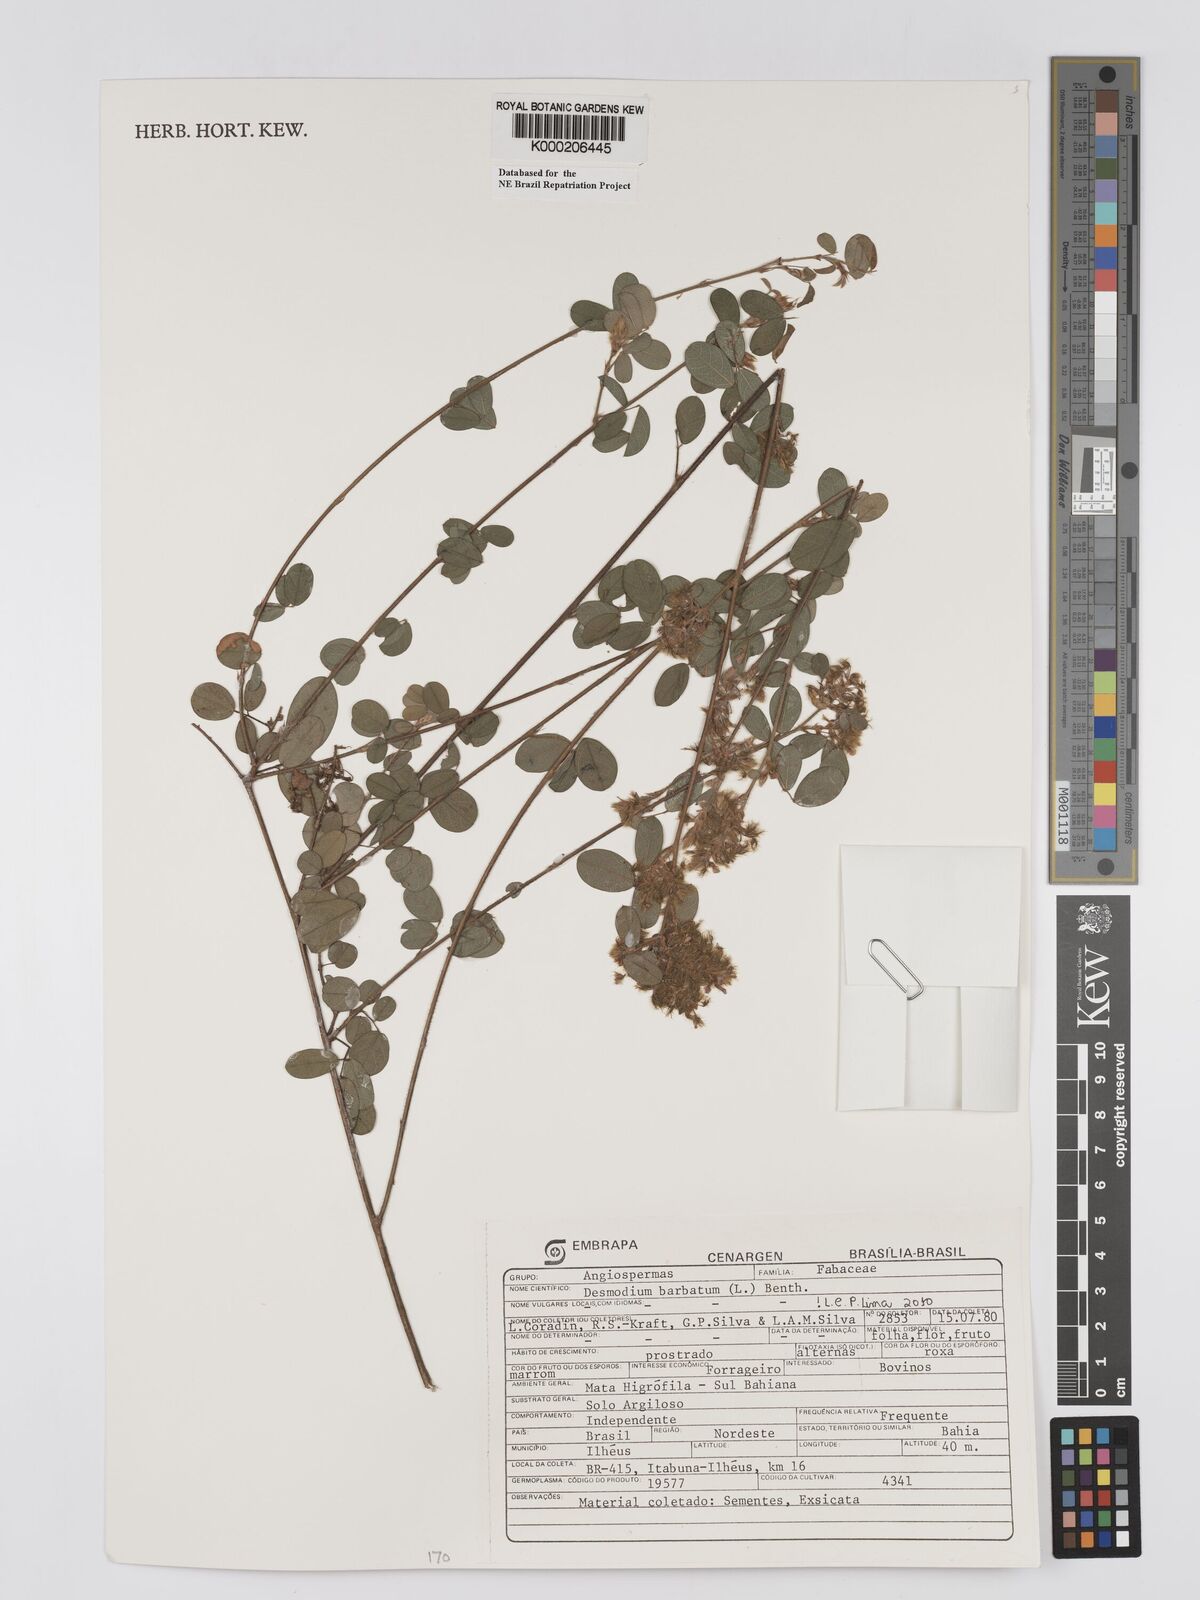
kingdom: Plantae
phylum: Tracheophyta
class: Magnoliopsida
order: Fabales
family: Fabaceae
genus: Grona
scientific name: Grona barbata
